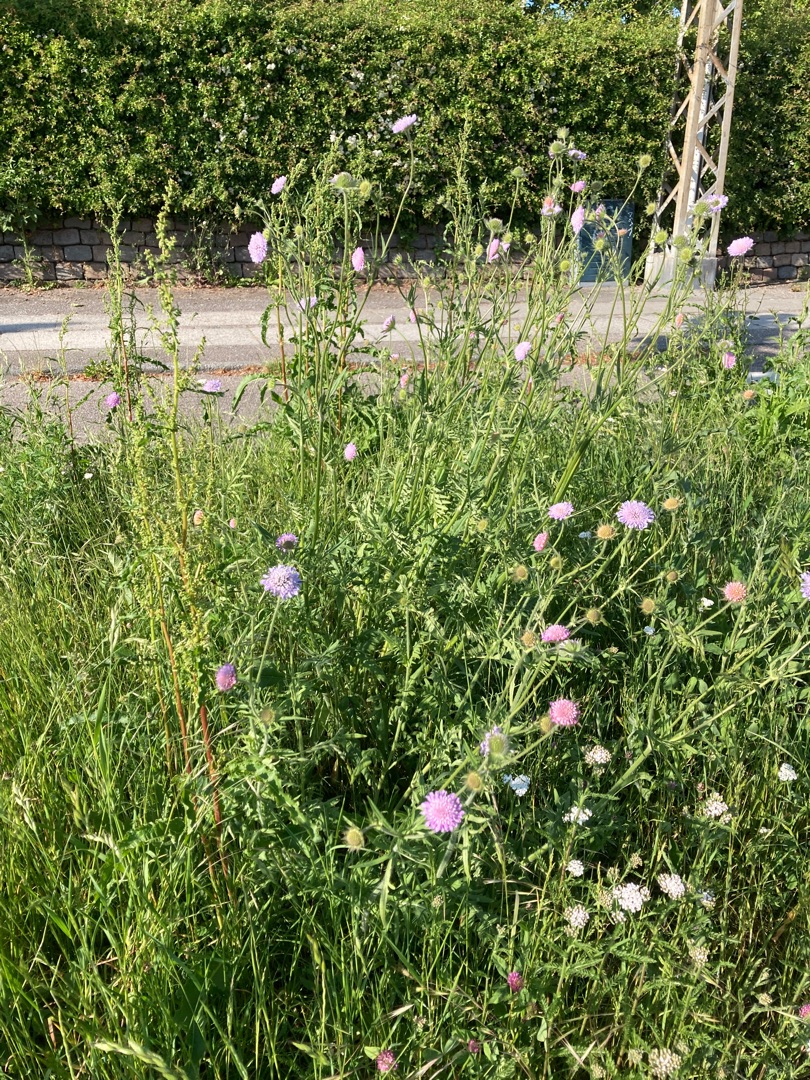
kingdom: Plantae
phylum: Tracheophyta
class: Magnoliopsida
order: Dipsacales
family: Caprifoliaceae
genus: Knautia
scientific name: Knautia arvensis
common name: Blåhat
